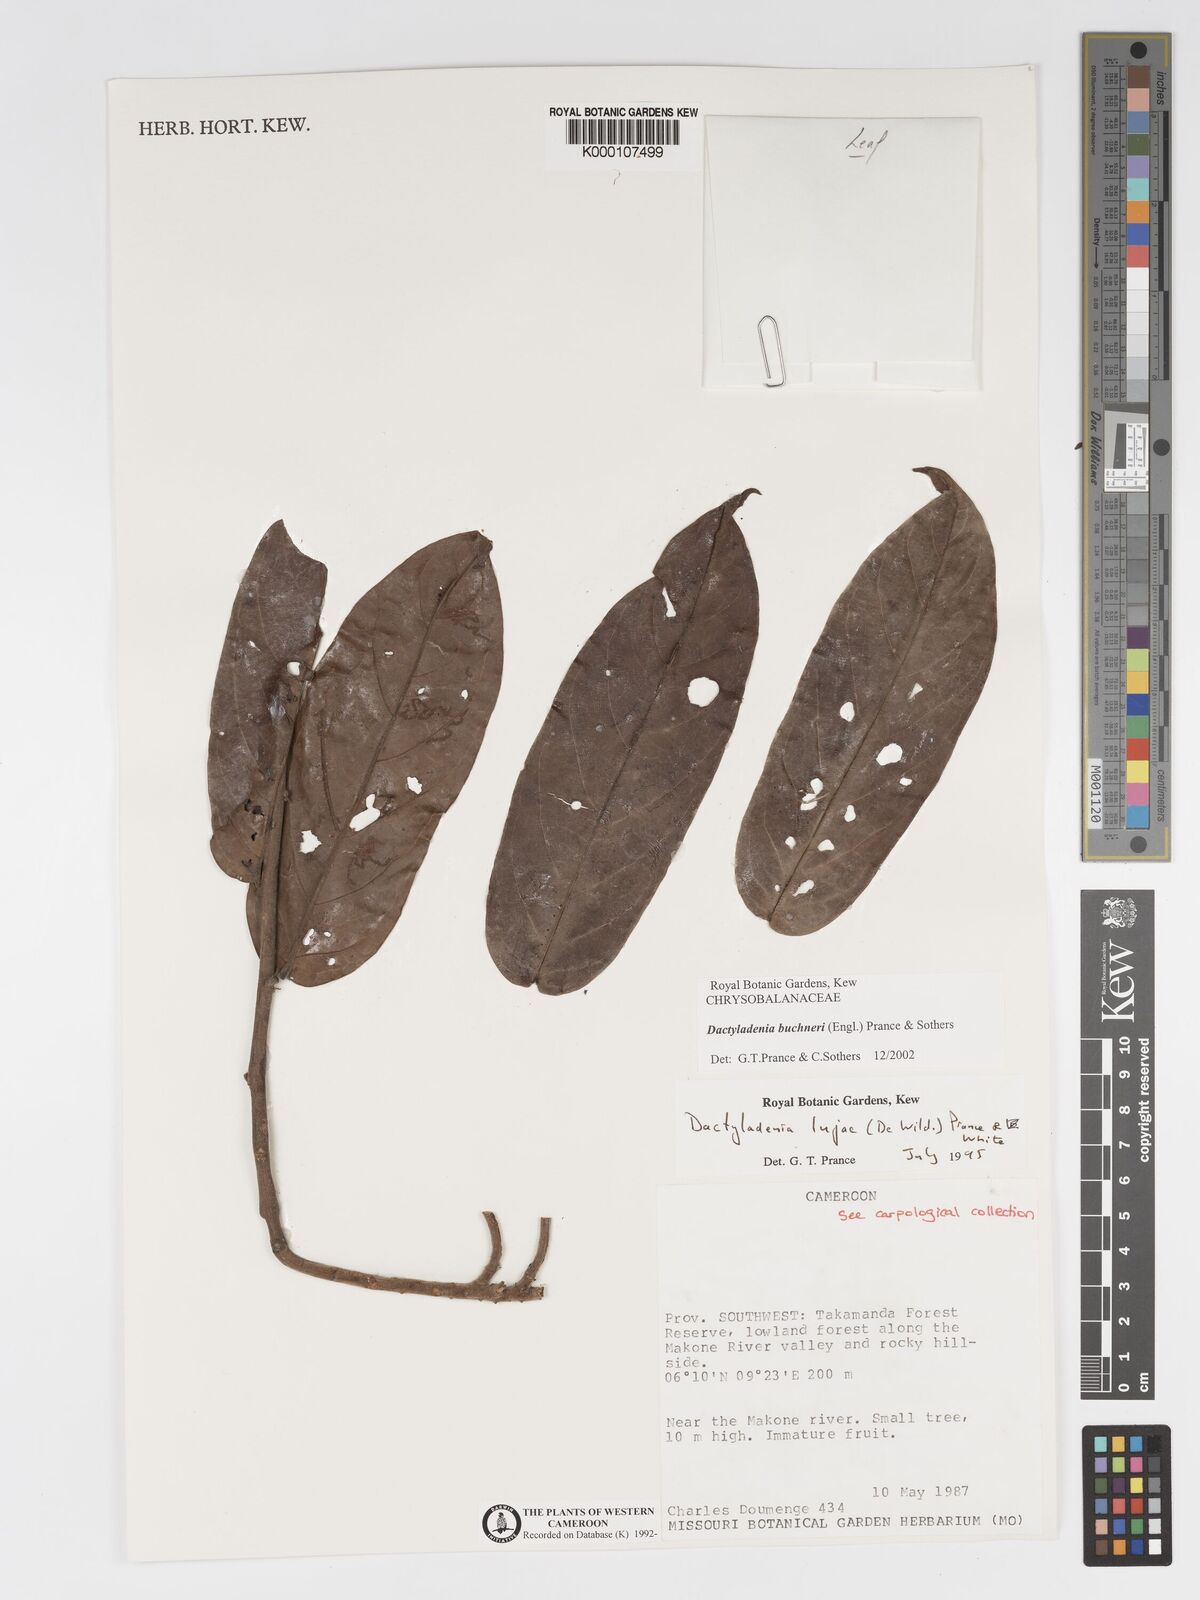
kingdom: Plantae
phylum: Tracheophyta
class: Magnoliopsida
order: Malpighiales
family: Chrysobalanaceae
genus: Dactyladenia
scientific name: Dactyladenia buchneri
